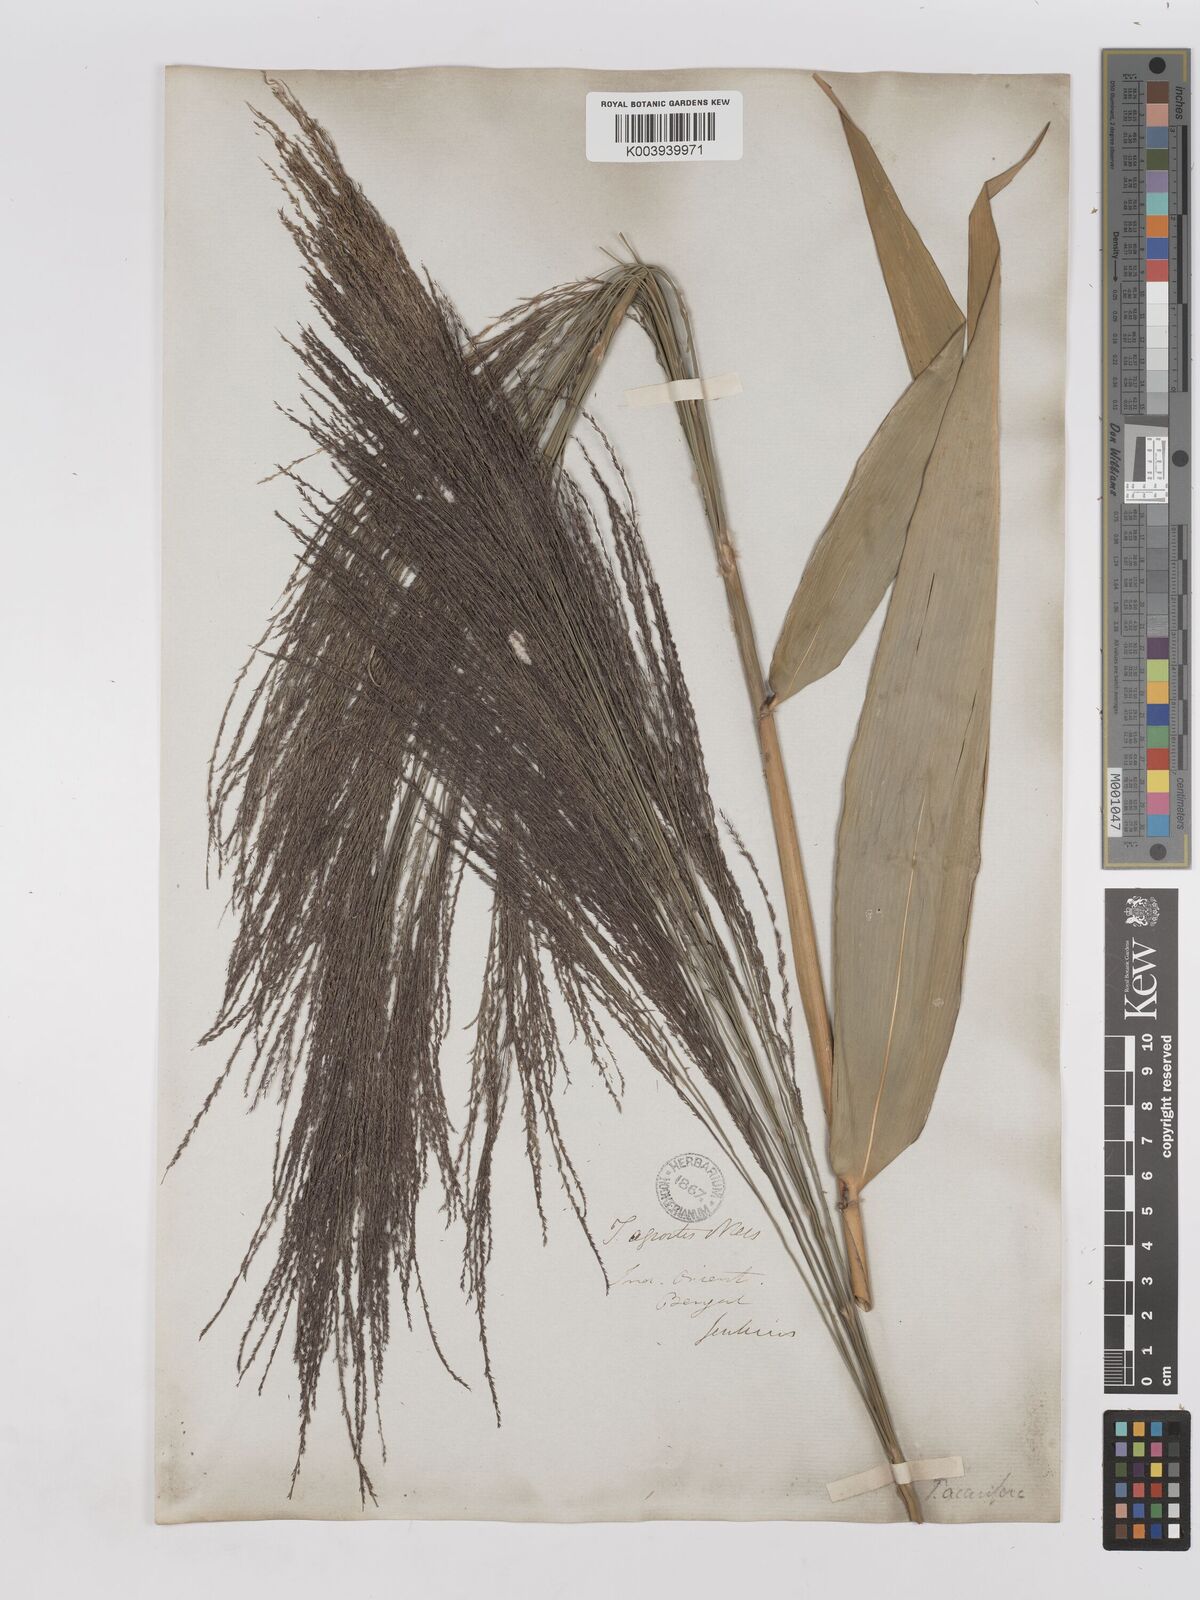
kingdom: Plantae
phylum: Tracheophyta
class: Liliopsida
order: Poales
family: Poaceae
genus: Thysanolaena
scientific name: Thysanolaena latifolia
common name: Tiger grass
